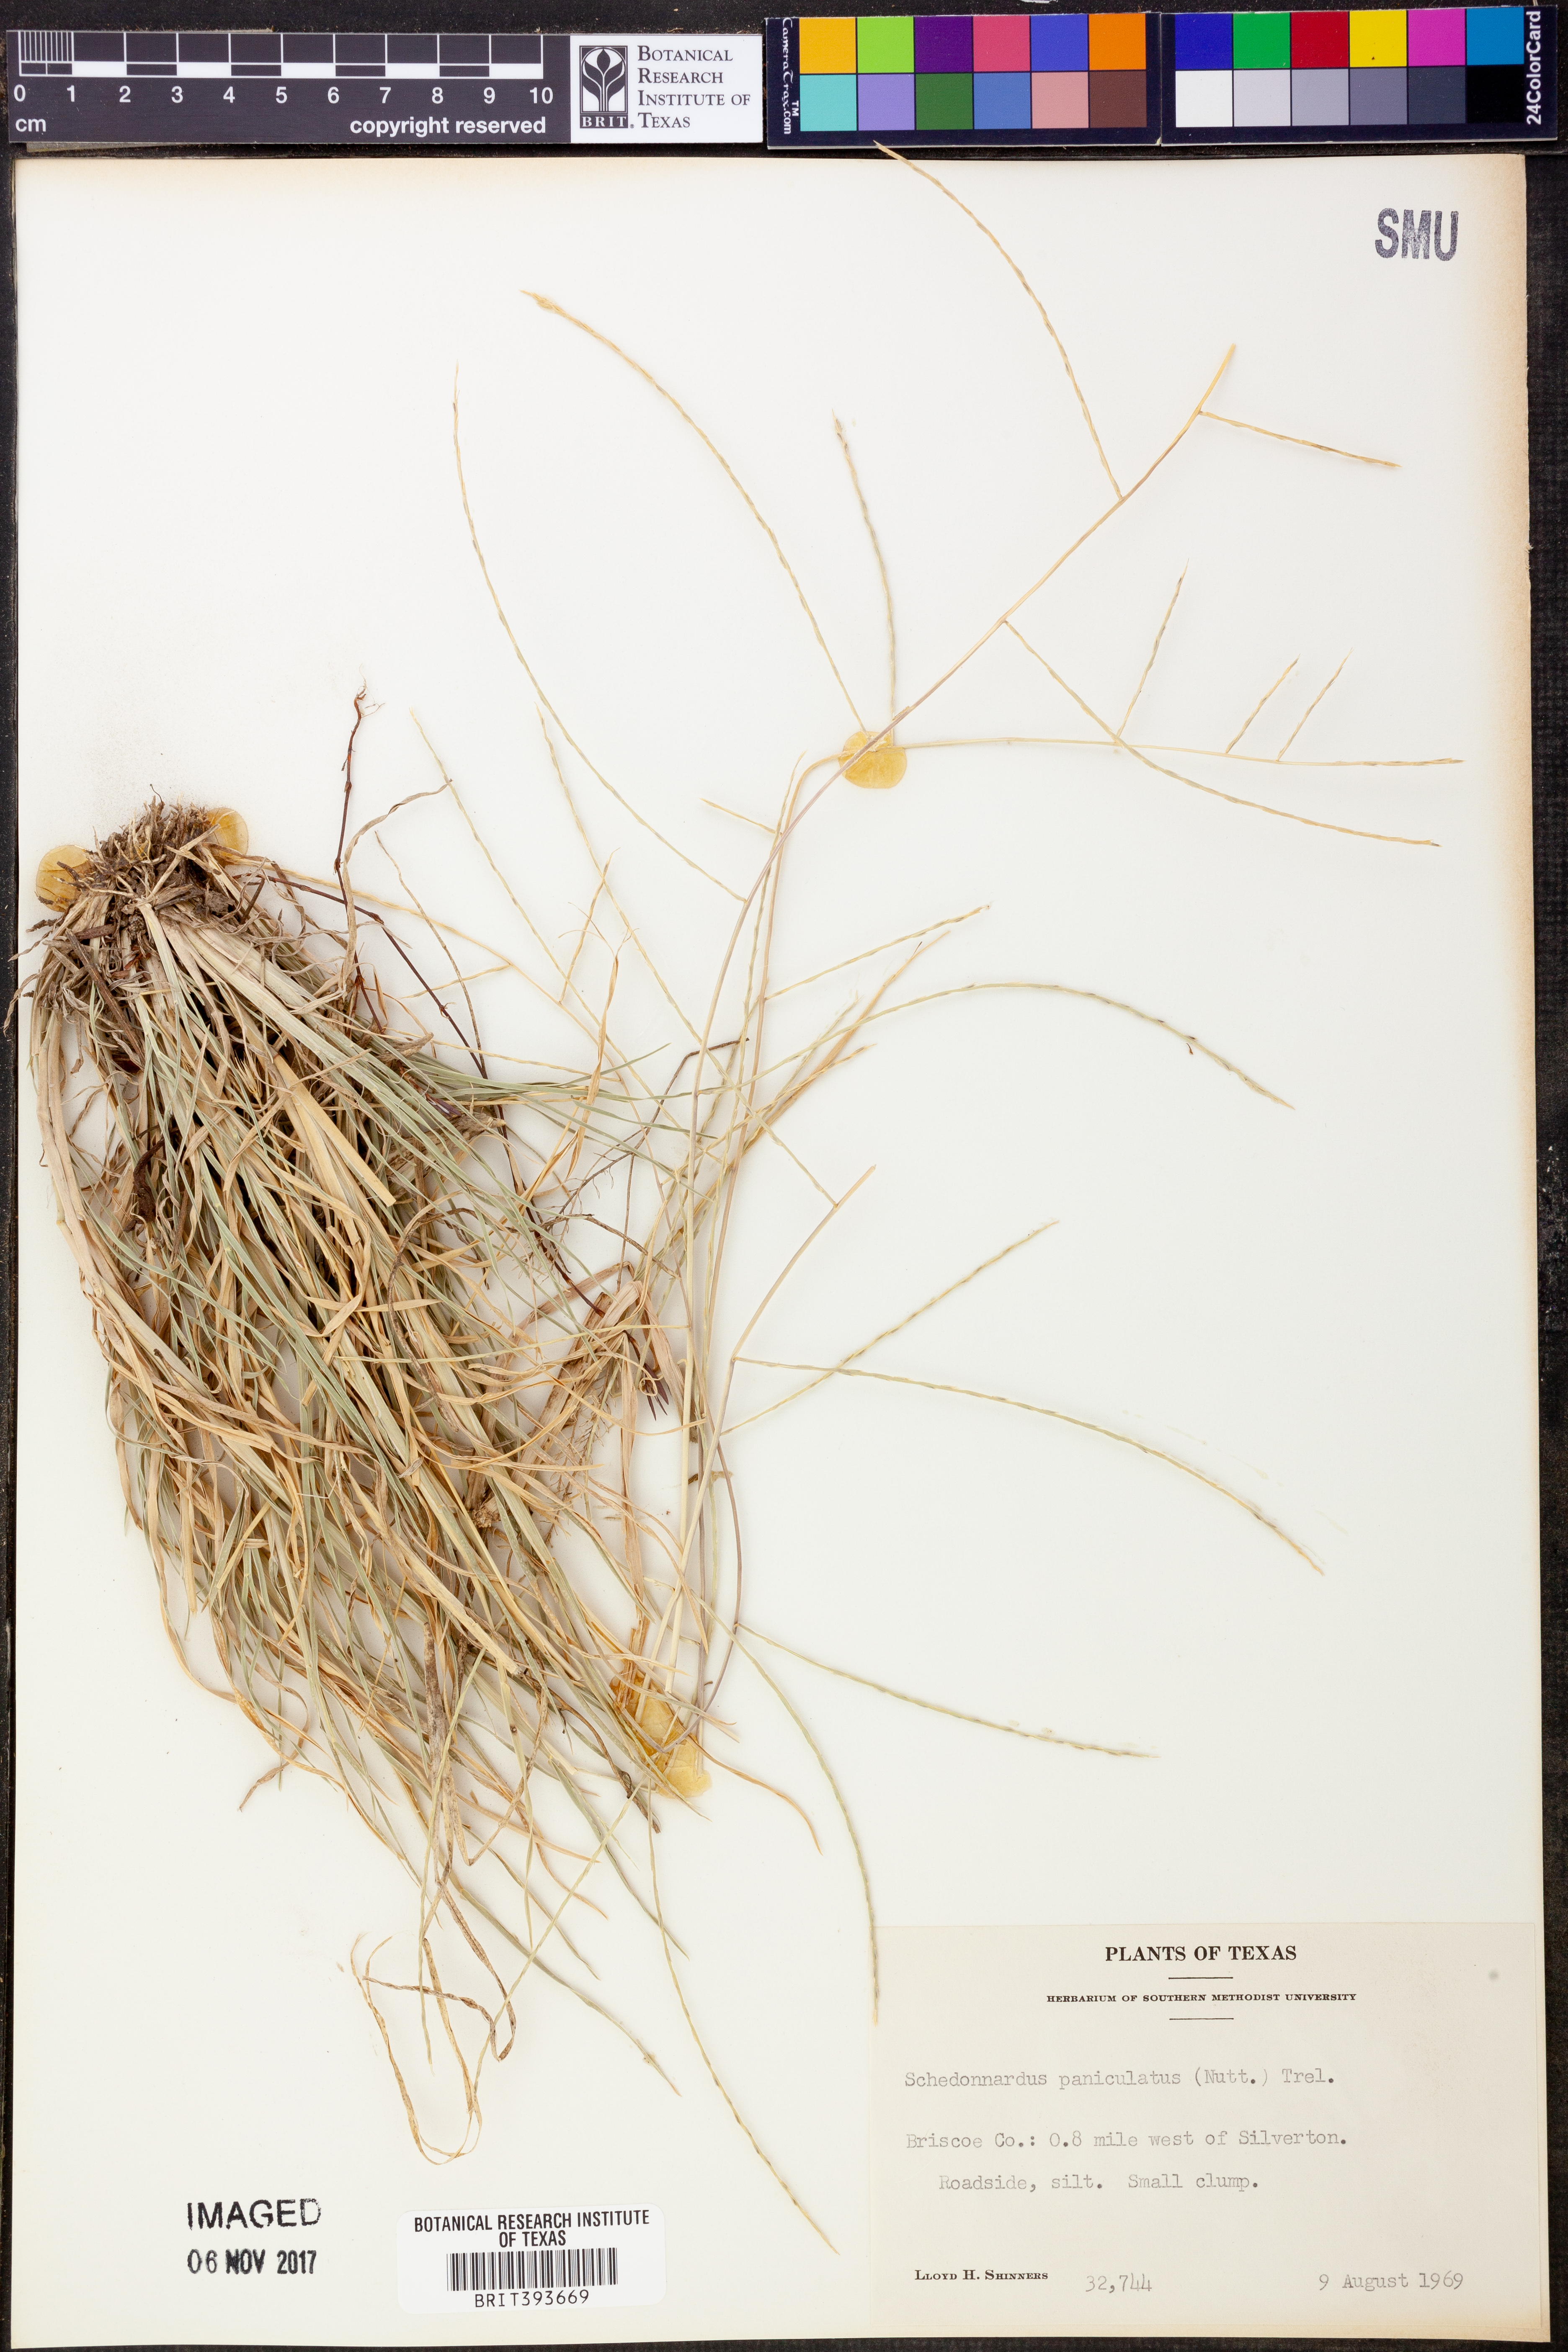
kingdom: Plantae
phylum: Tracheophyta
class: Liliopsida
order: Poales
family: Poaceae
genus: Muhlenbergia
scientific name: Muhlenbergia paniculata
